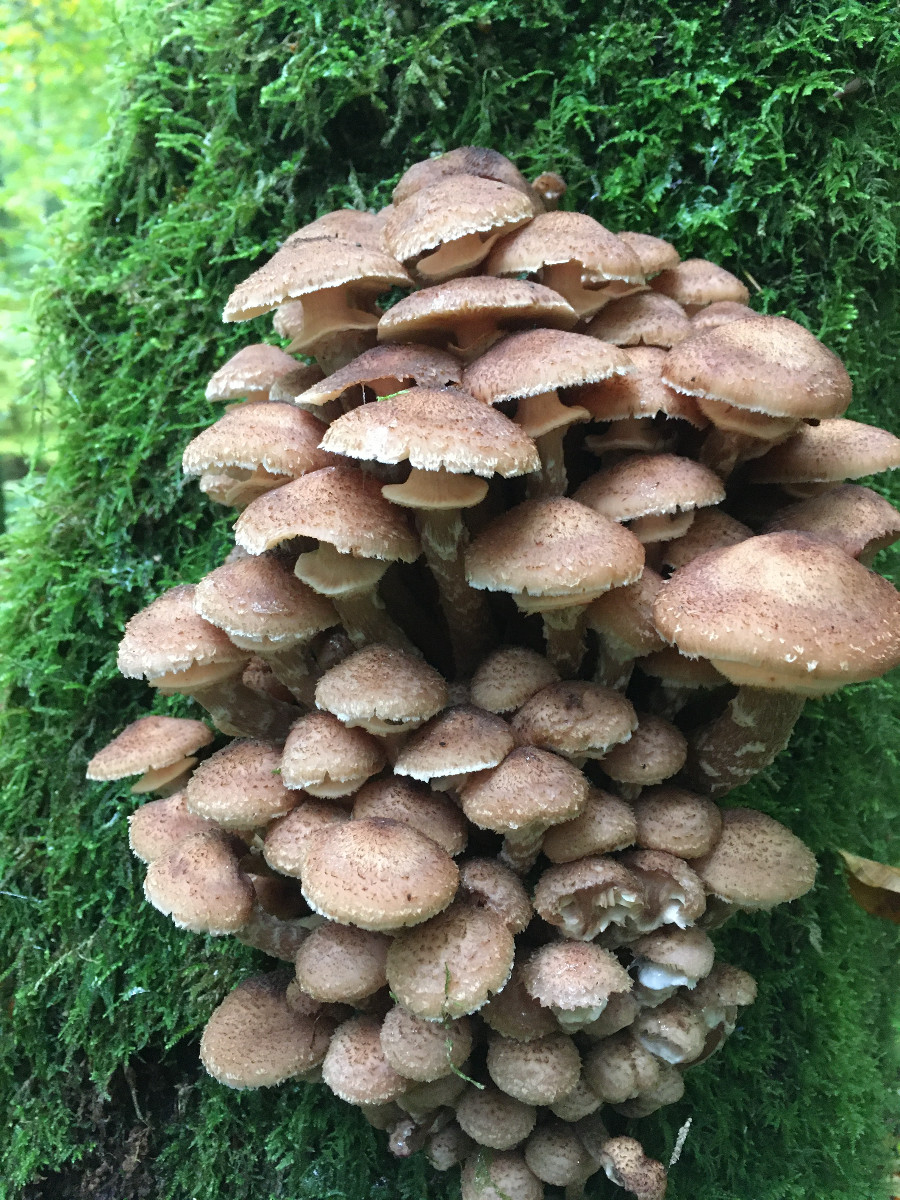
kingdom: Fungi
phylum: Basidiomycota
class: Agaricomycetes
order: Agaricales
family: Physalacriaceae
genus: Armillaria
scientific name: Armillaria ostoyae
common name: mørk honningsvamp
